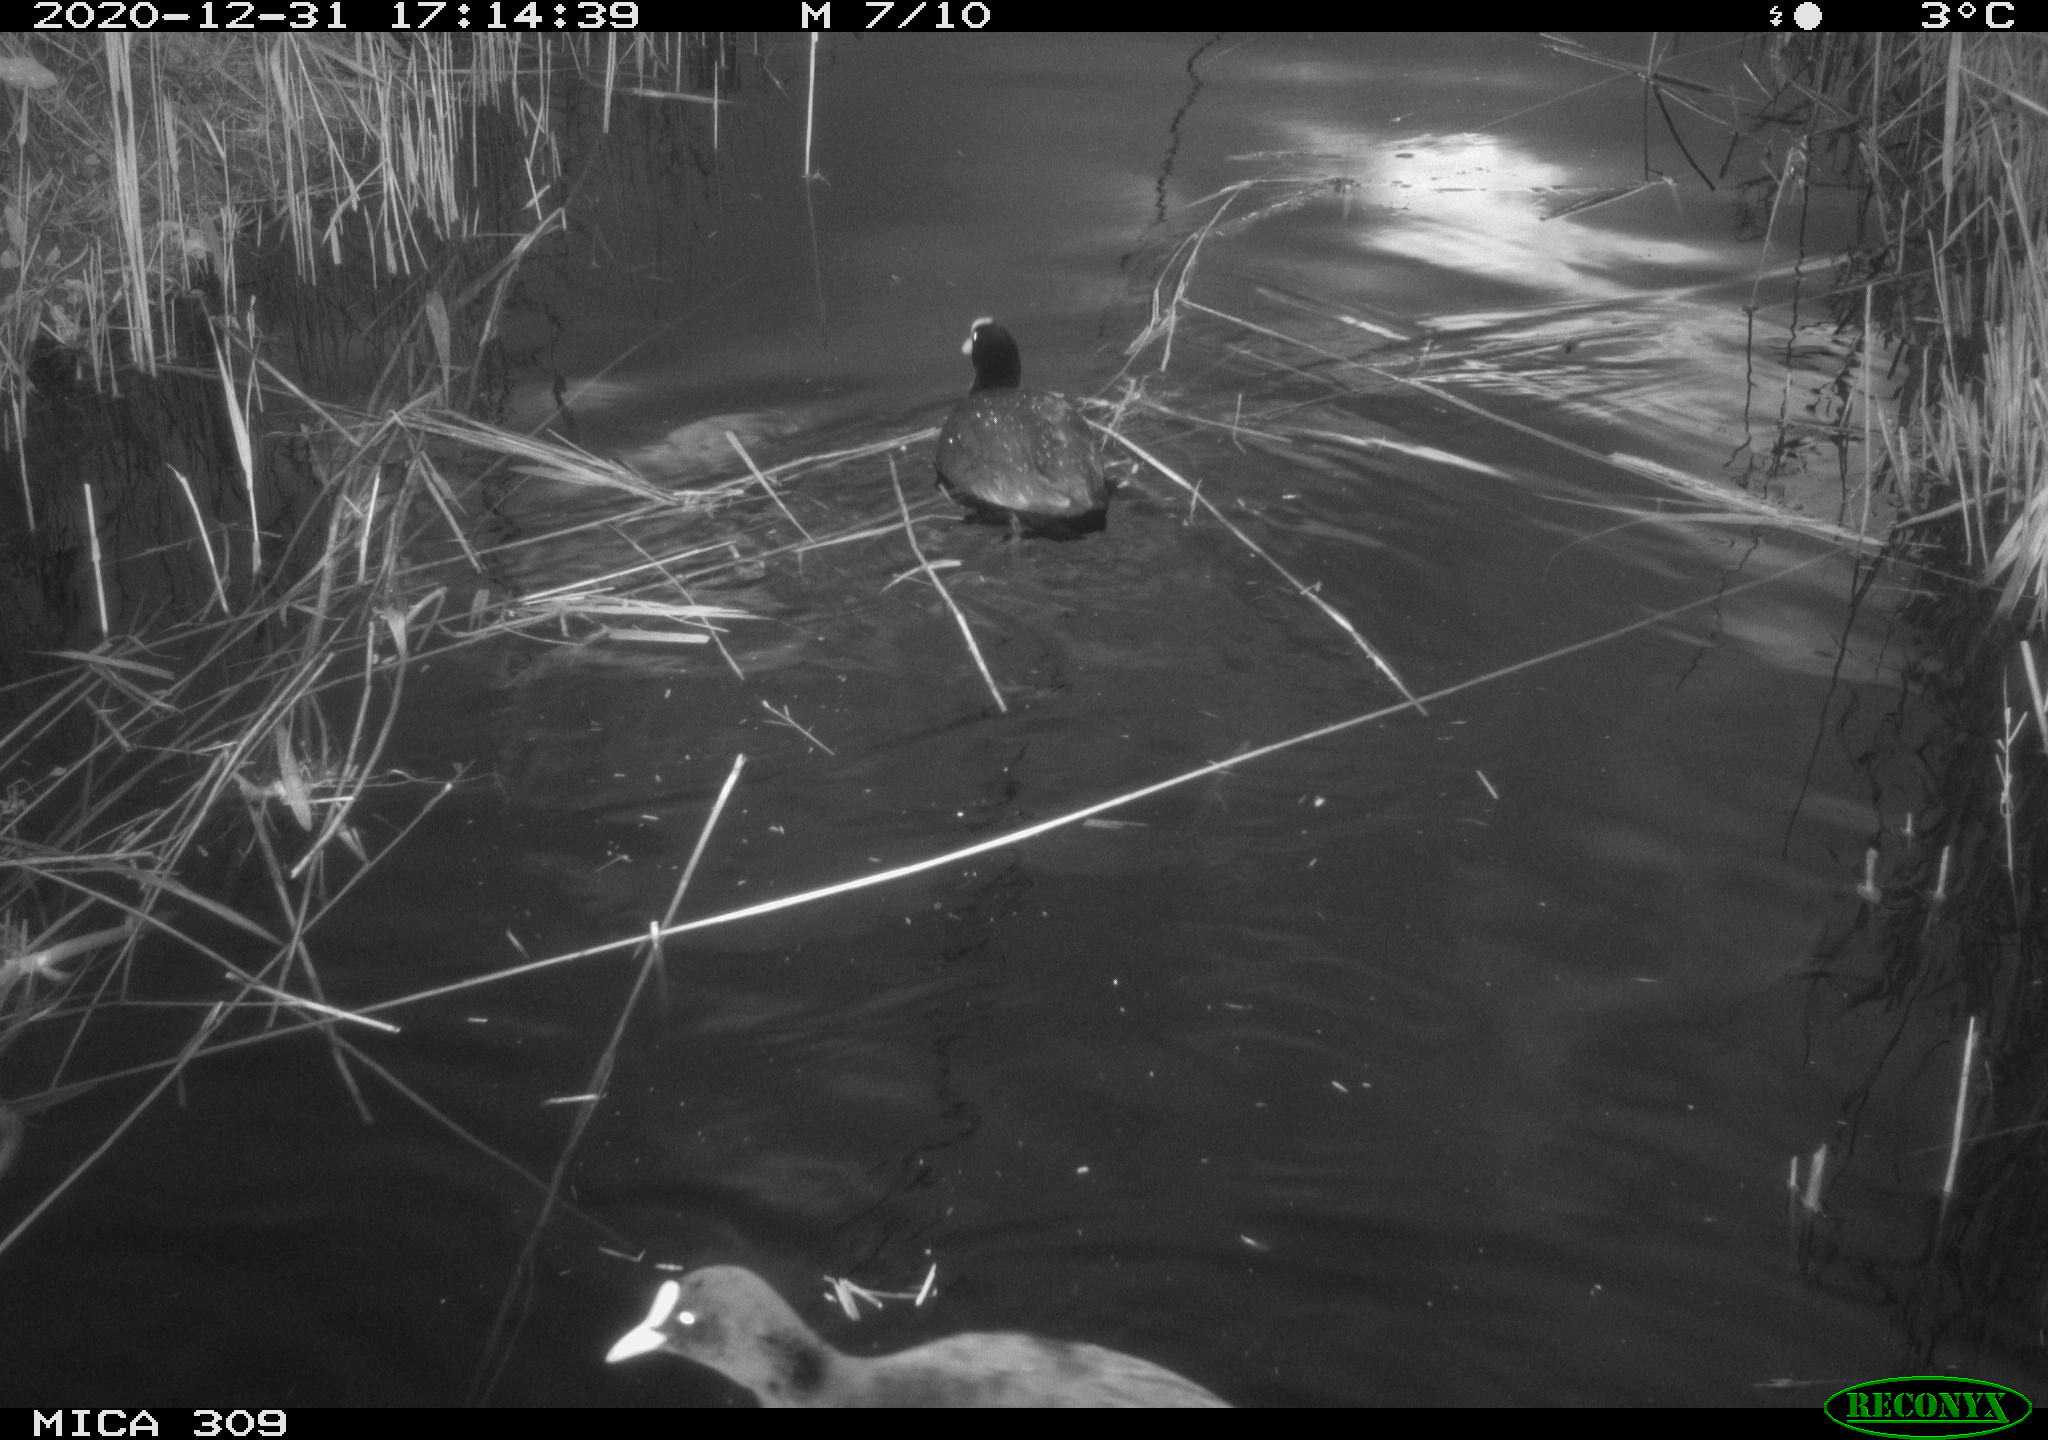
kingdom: Animalia
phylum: Chordata
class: Aves
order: Gruiformes
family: Rallidae
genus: Fulica
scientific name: Fulica atra
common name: Eurasian coot
